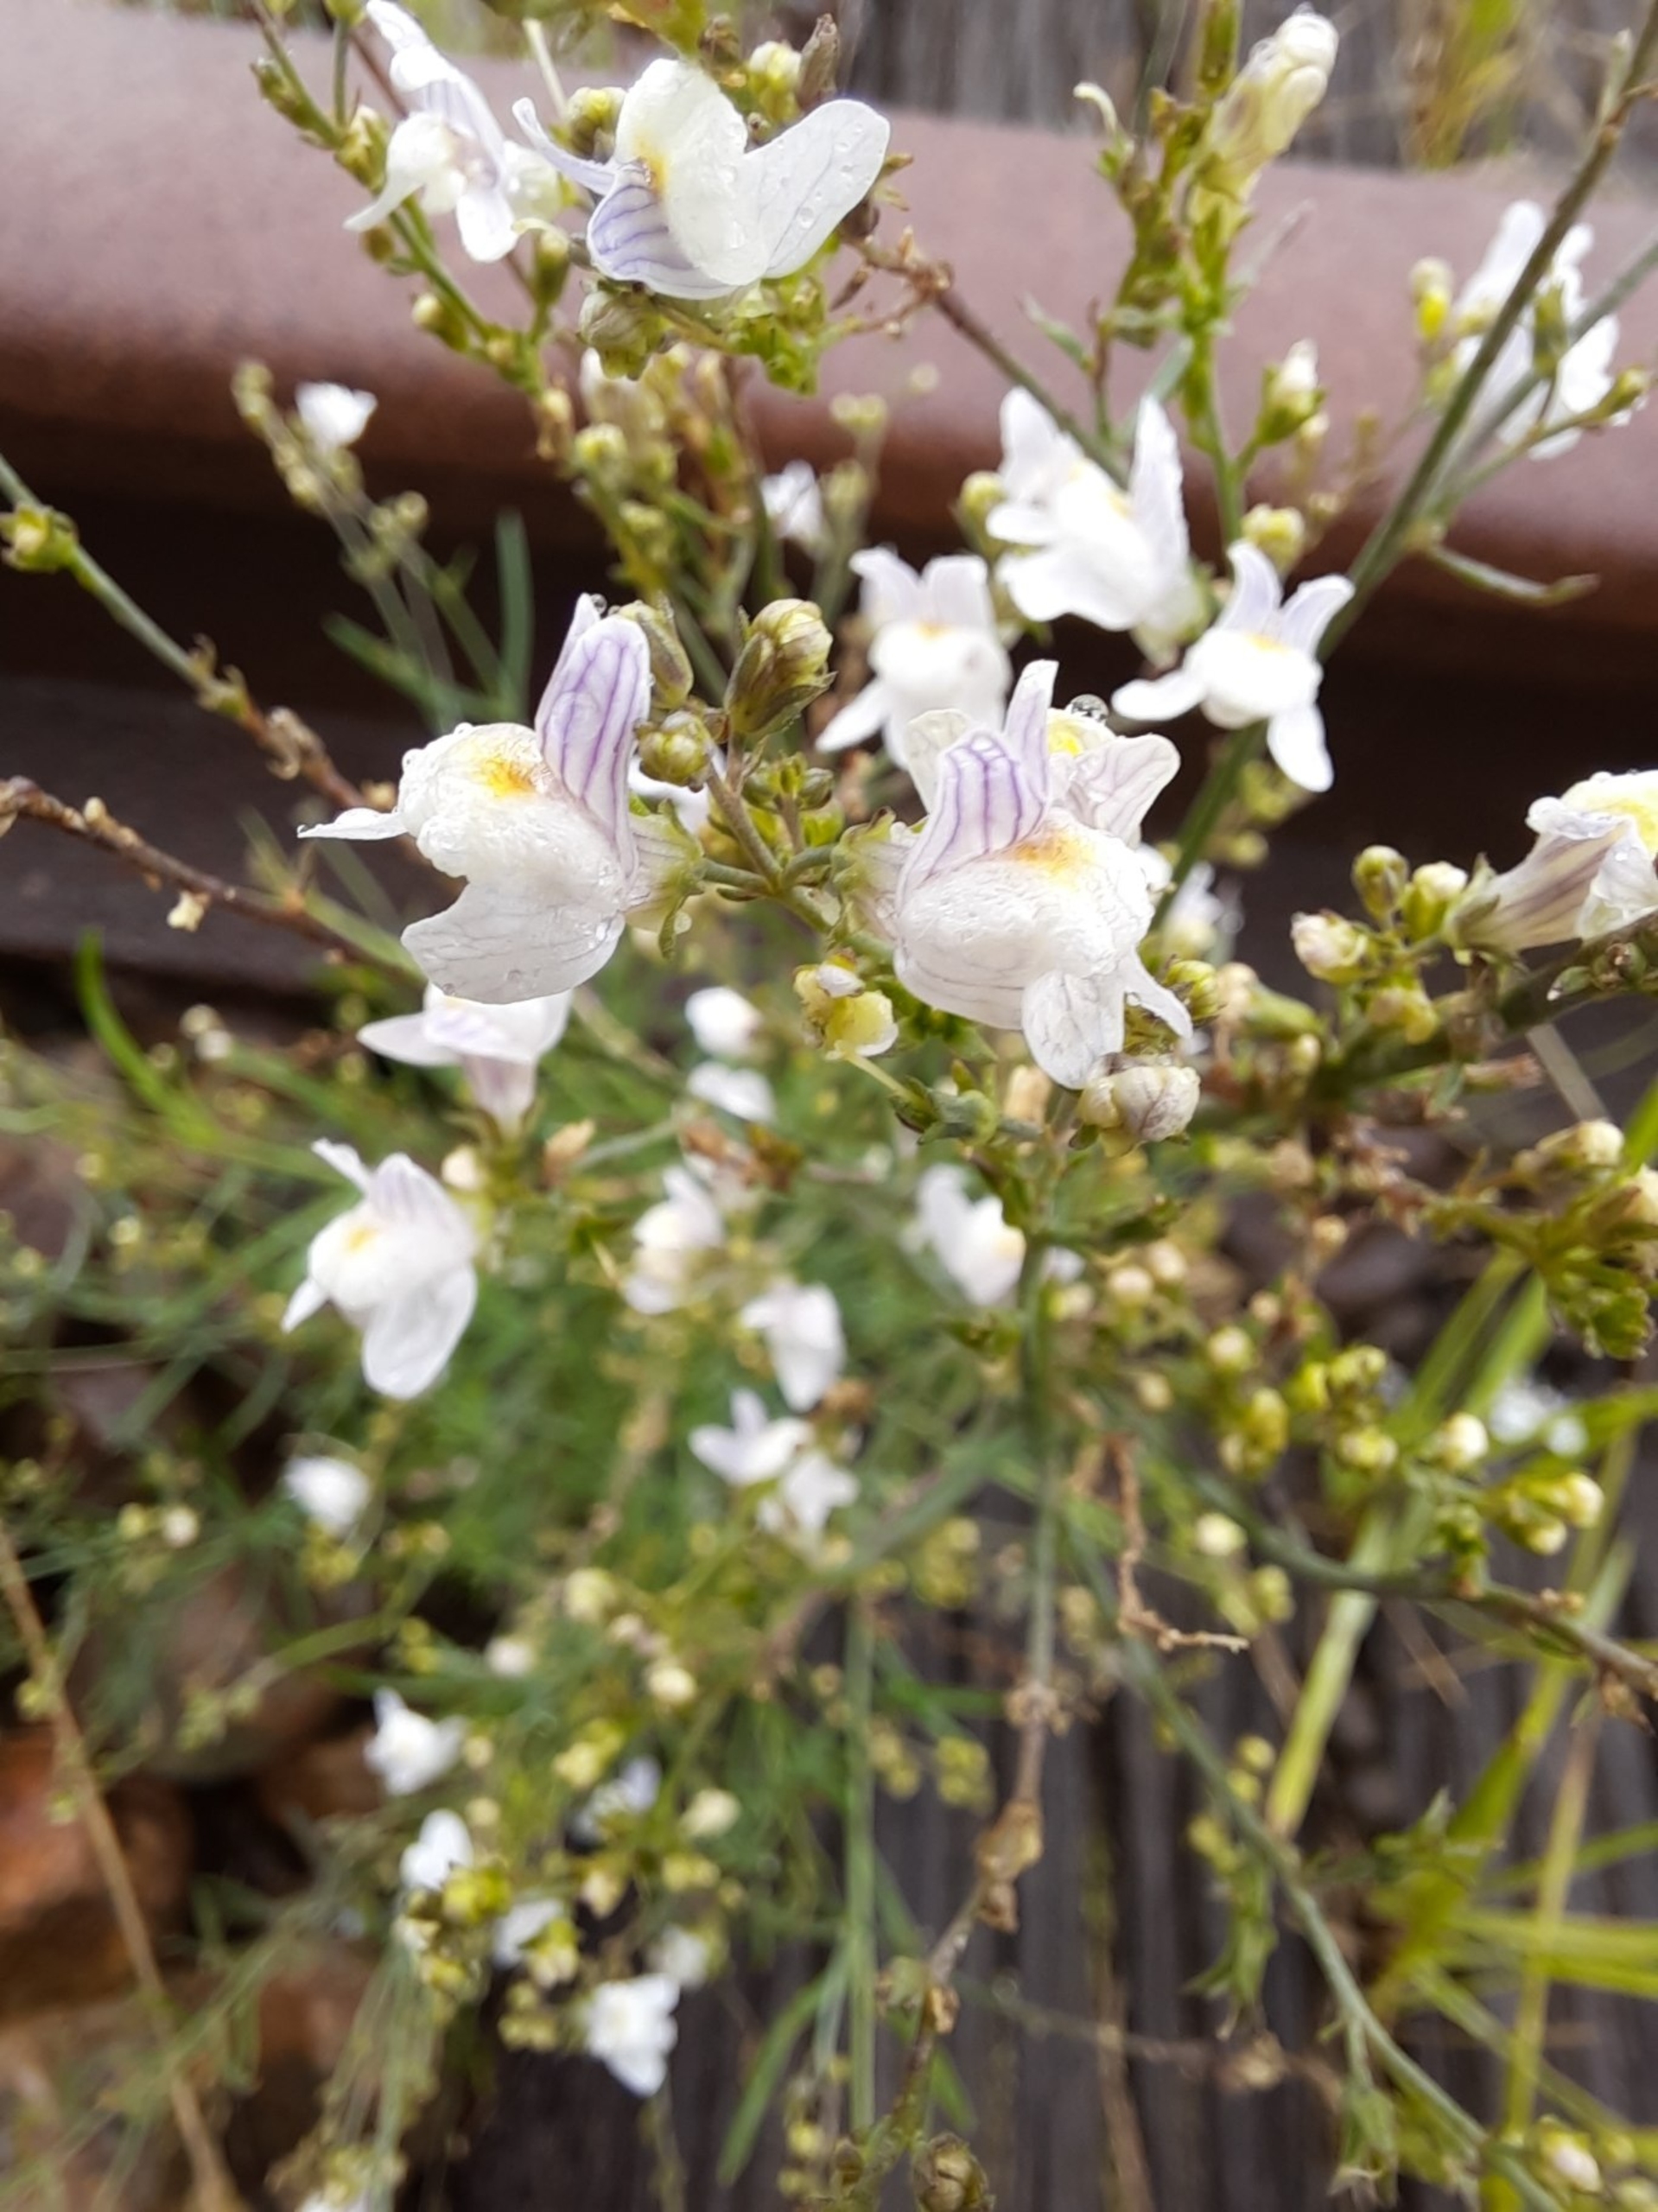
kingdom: Plantae
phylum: Tracheophyta
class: Magnoliopsida
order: Lamiales
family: Plantaginaceae
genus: Linaria
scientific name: Linaria repens
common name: Stribet torskemund
